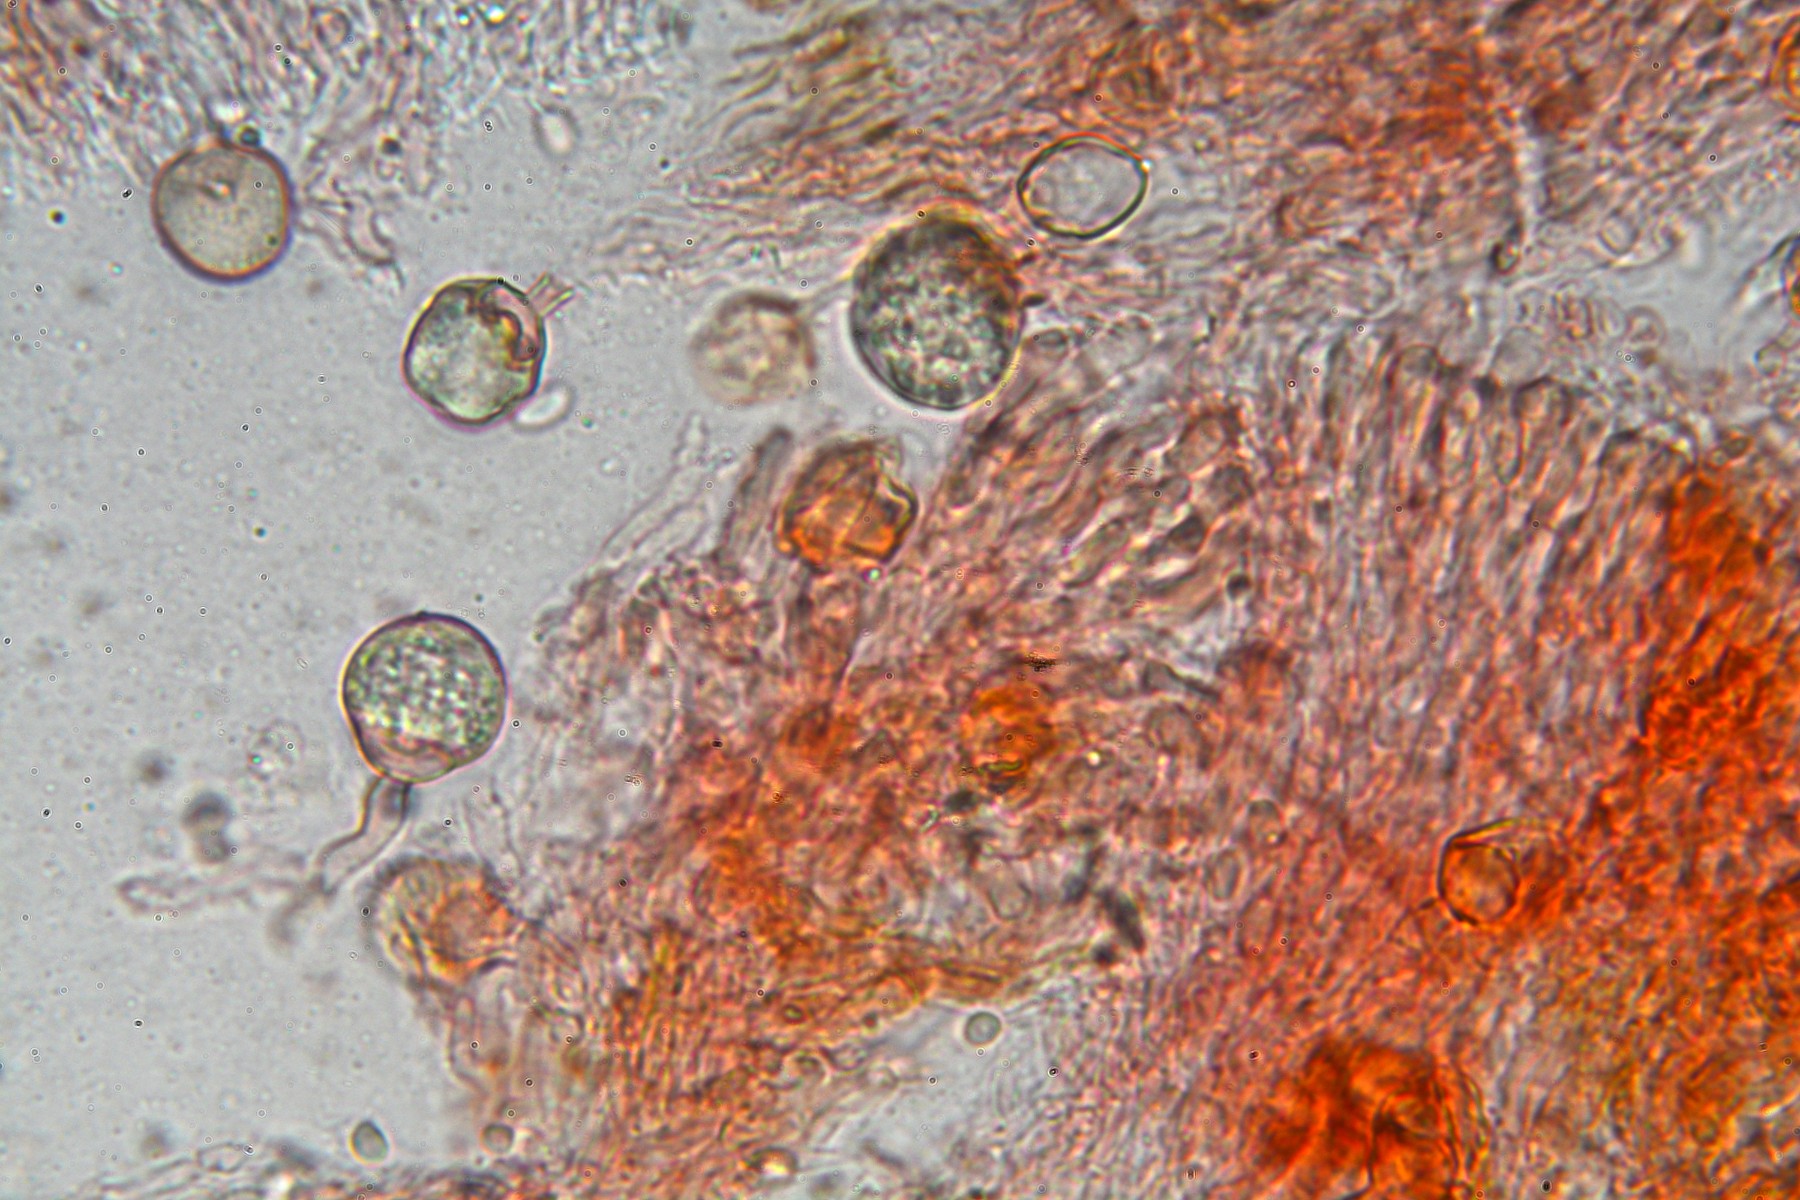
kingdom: Fungi
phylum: Basidiomycota
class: Agaricomycetes
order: Hymenochaetales
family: Repetobasidiaceae
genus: Skvortzovia
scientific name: Skvortzovia furfuracea
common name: tynd vokstand
